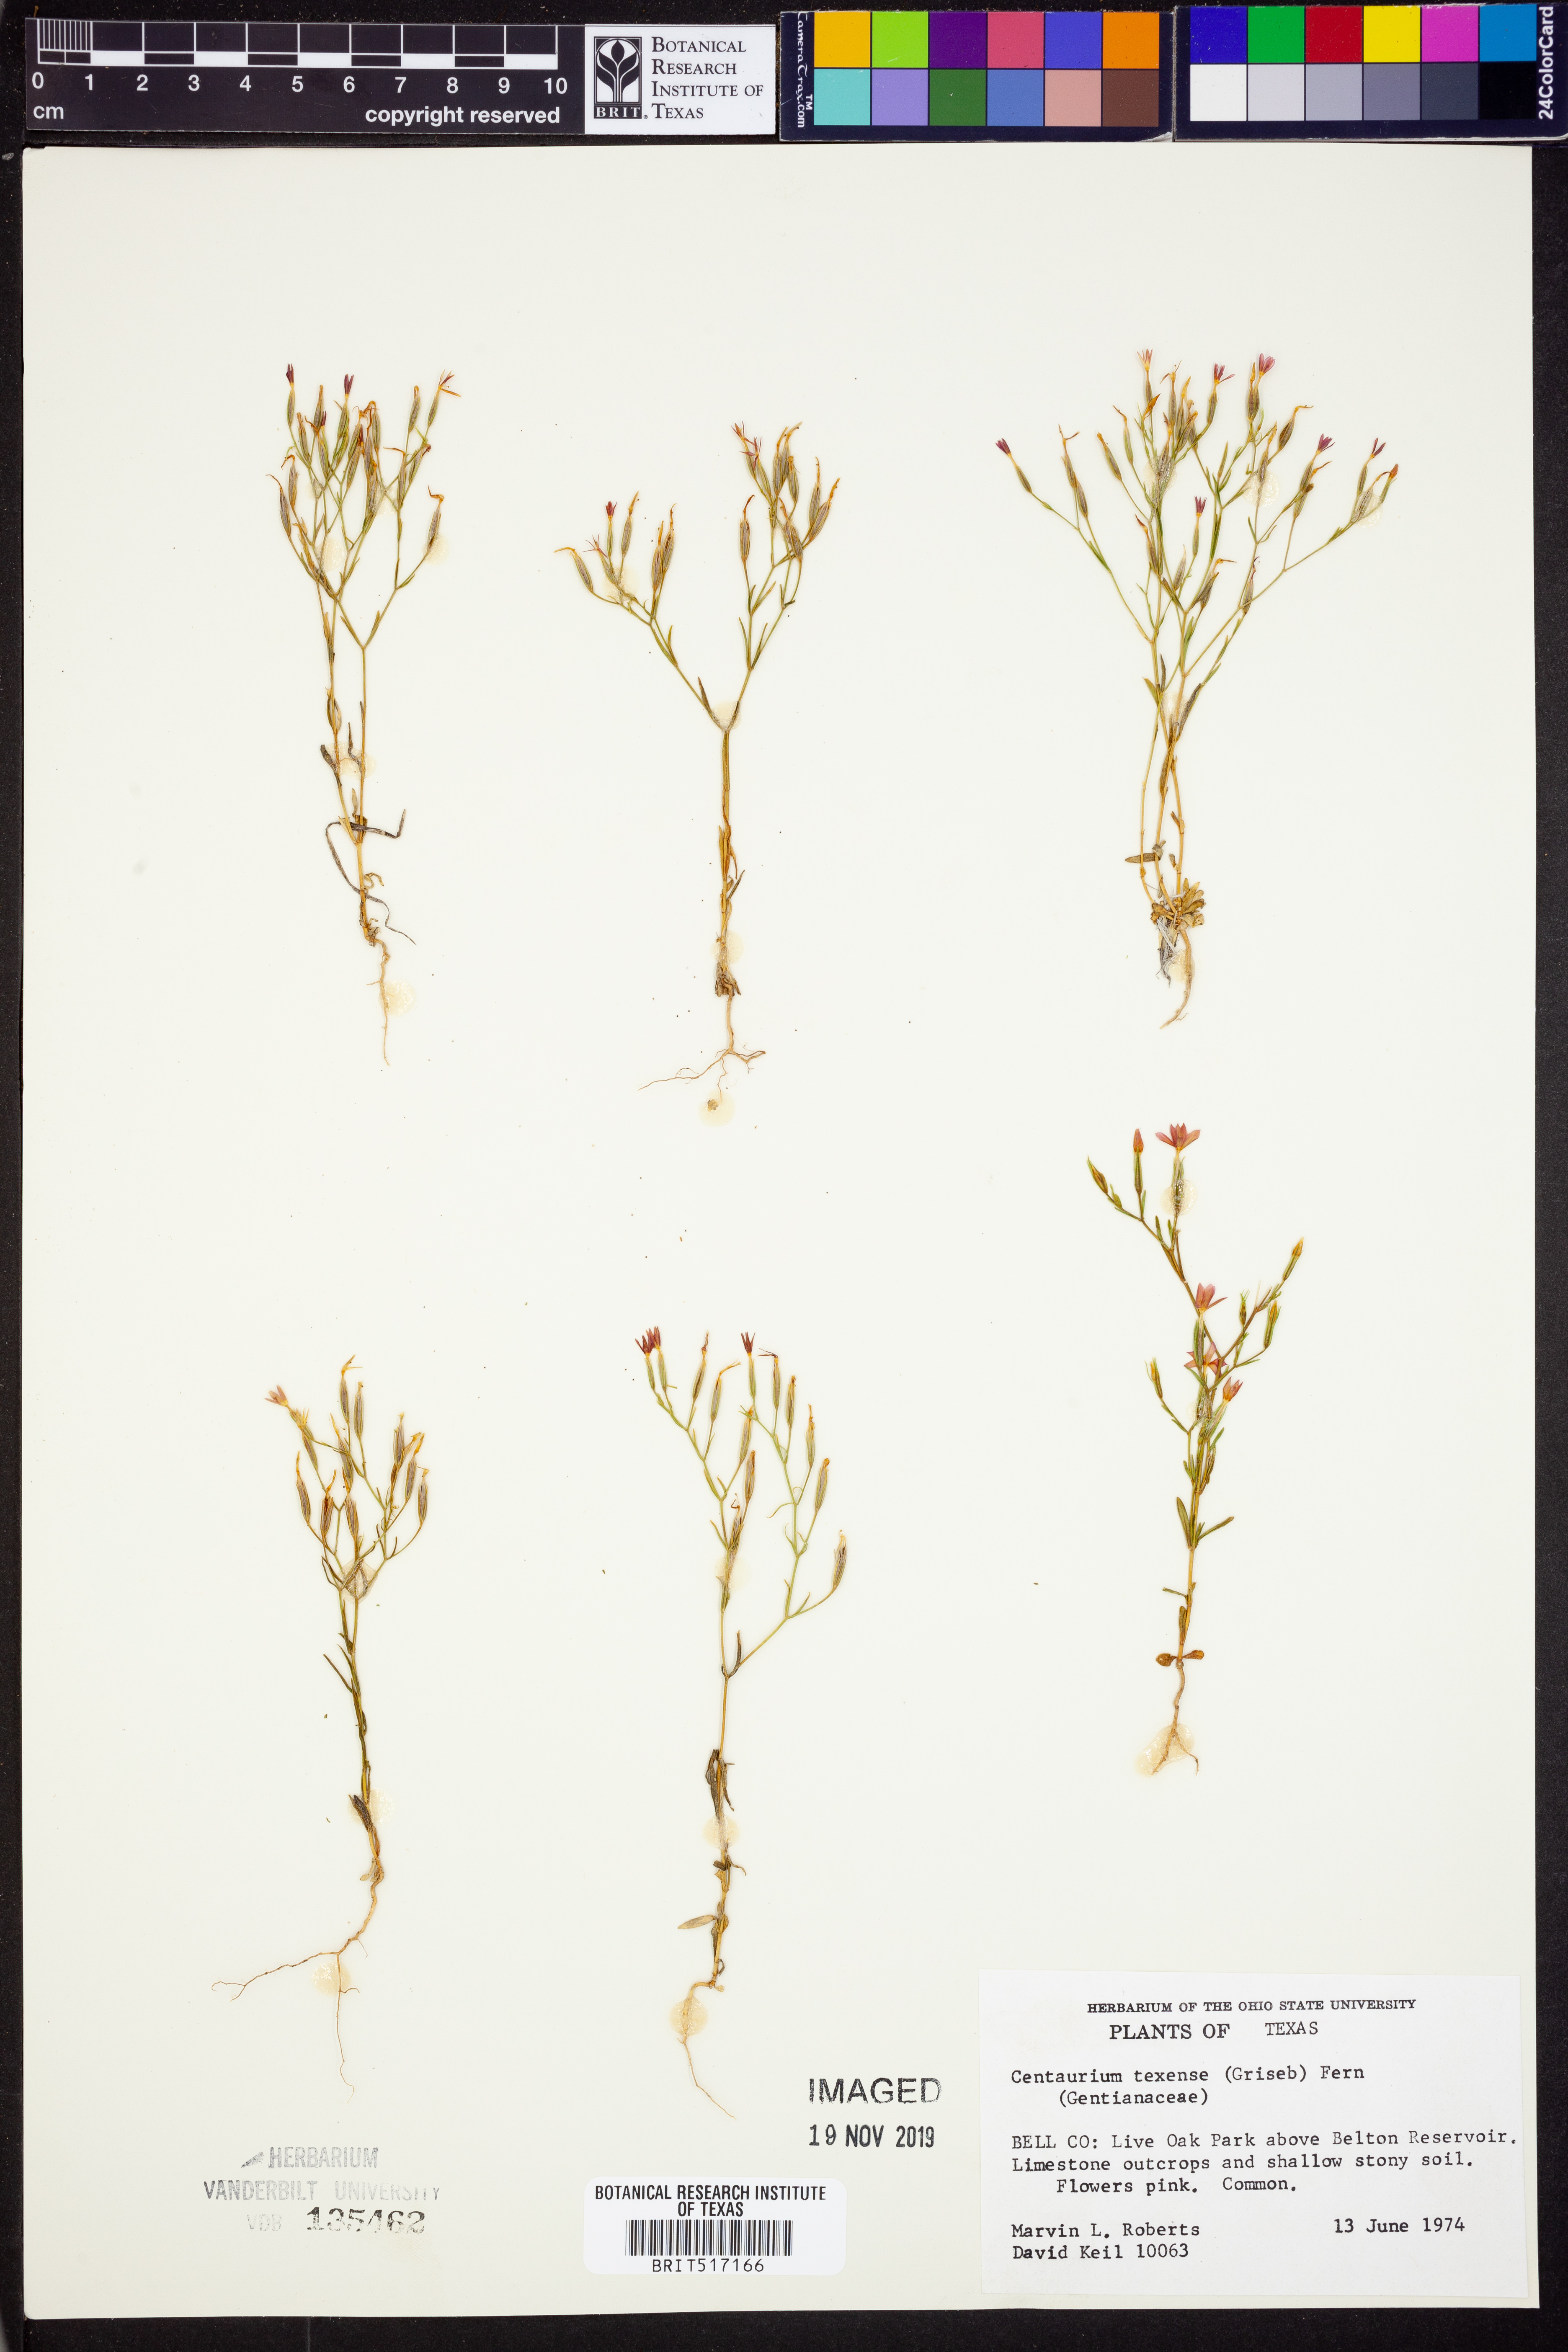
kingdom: Plantae
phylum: Tracheophyta
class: Magnoliopsida
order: Gentianales
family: Gentianaceae
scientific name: Gentianaceae
